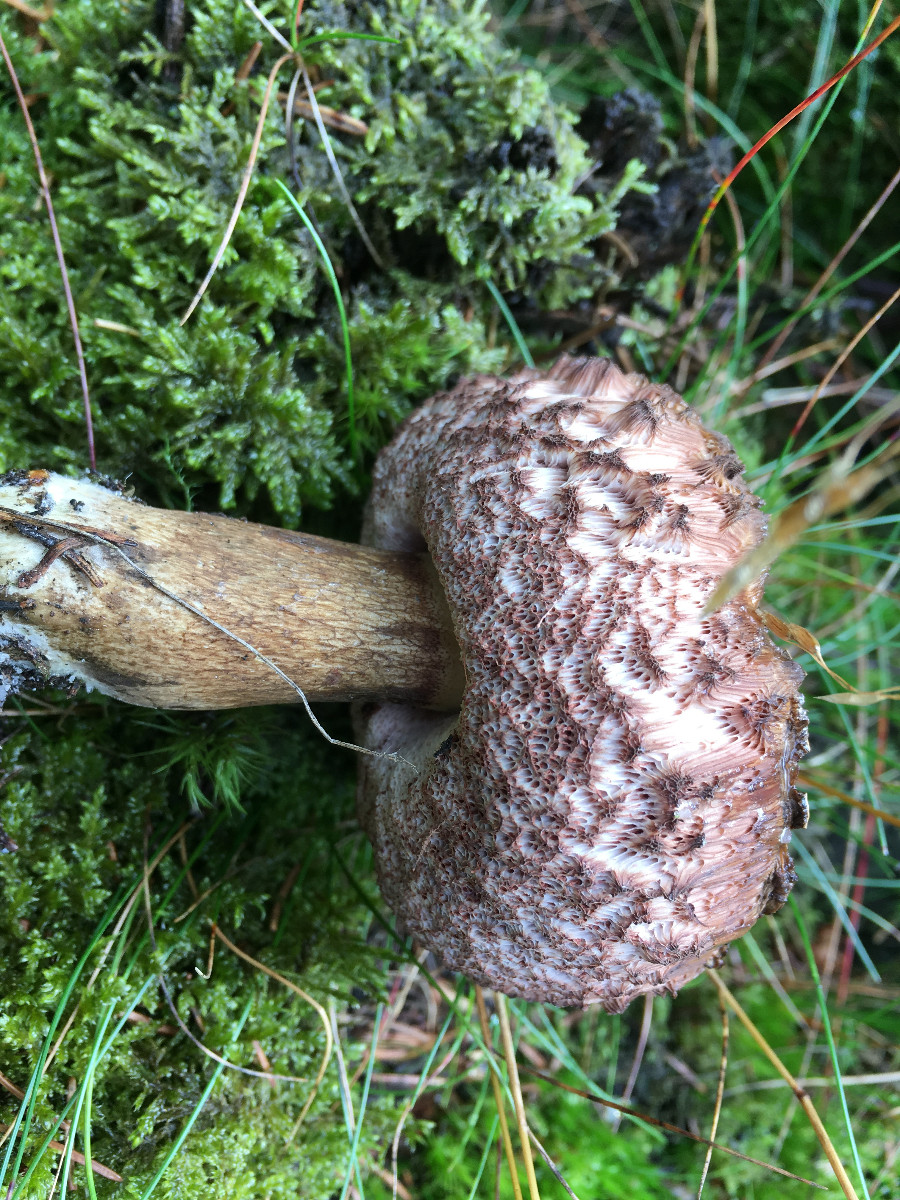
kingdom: Fungi
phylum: Basidiomycota
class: Agaricomycetes
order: Boletales
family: Boletaceae
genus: Tylopilus
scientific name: Tylopilus felleus
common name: galderørhat
